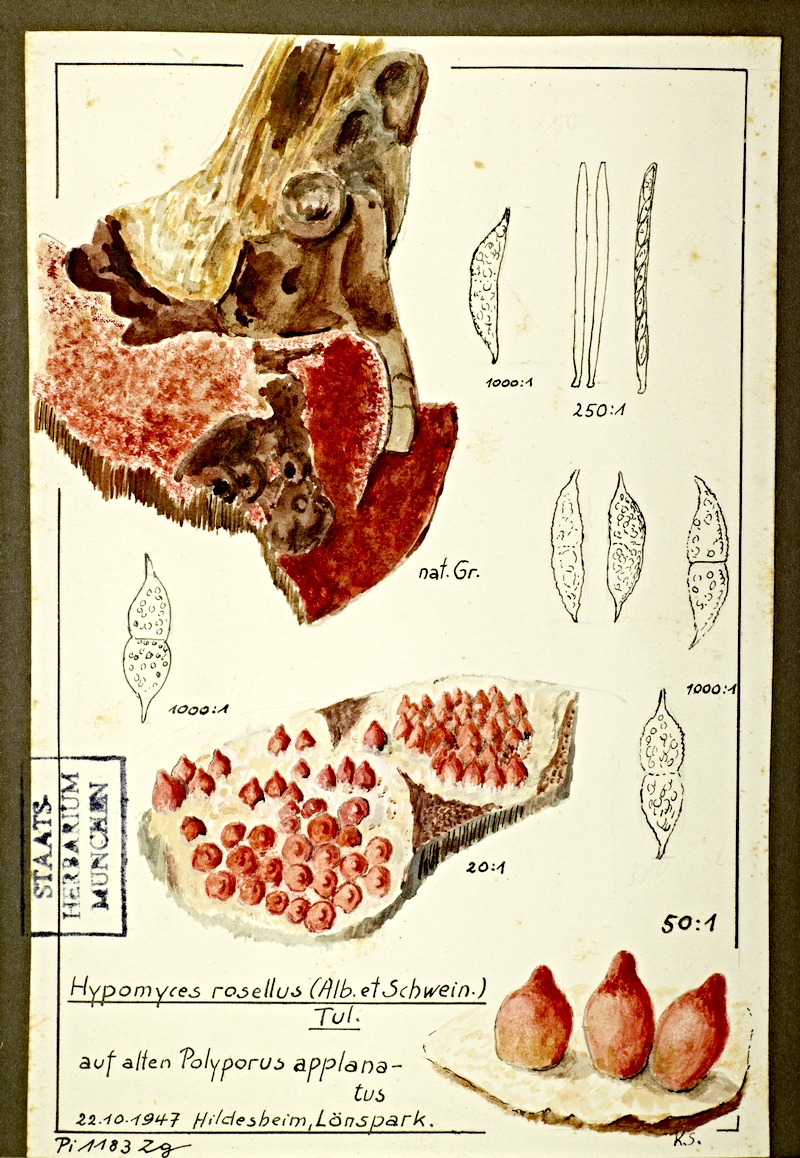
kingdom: Fungi
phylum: Ascomycota
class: Sordariomycetes
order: Hypocreales
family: Hypocreaceae
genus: Hypomyces
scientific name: Hypomyces rosellus
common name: Pink polypore mould
